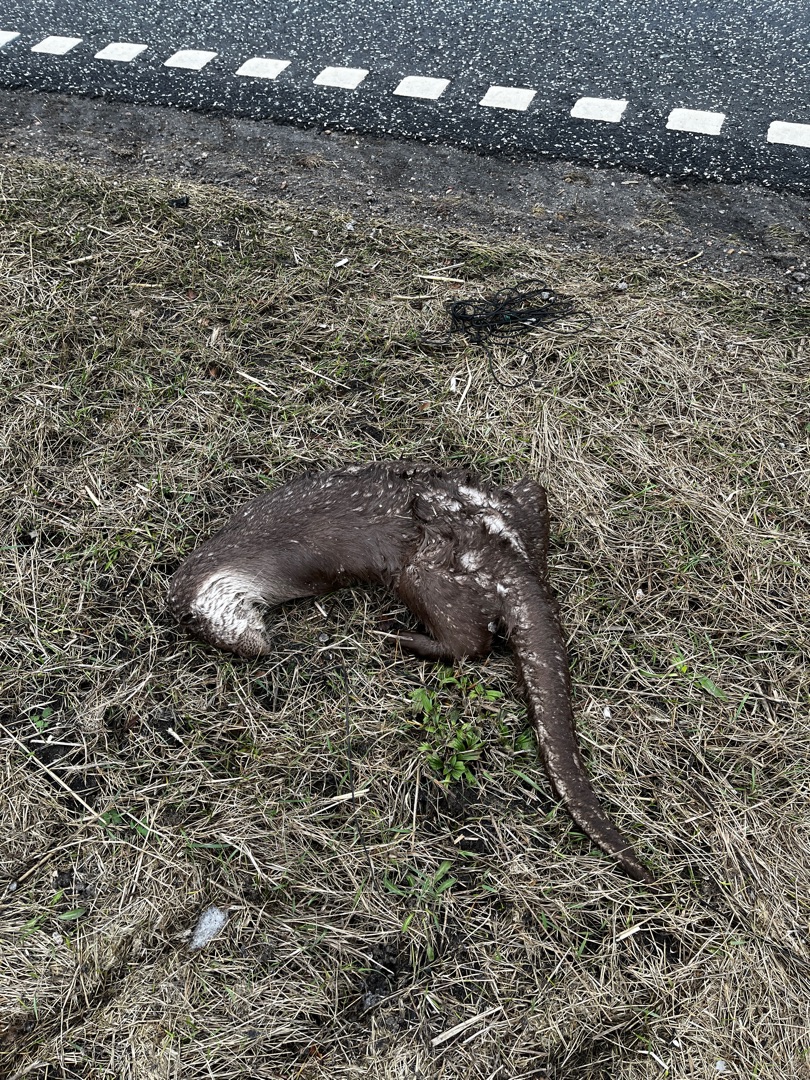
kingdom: Animalia
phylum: Chordata
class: Mammalia
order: Carnivora
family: Mustelidae
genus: Lutra
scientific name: Lutra lutra
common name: Odder
